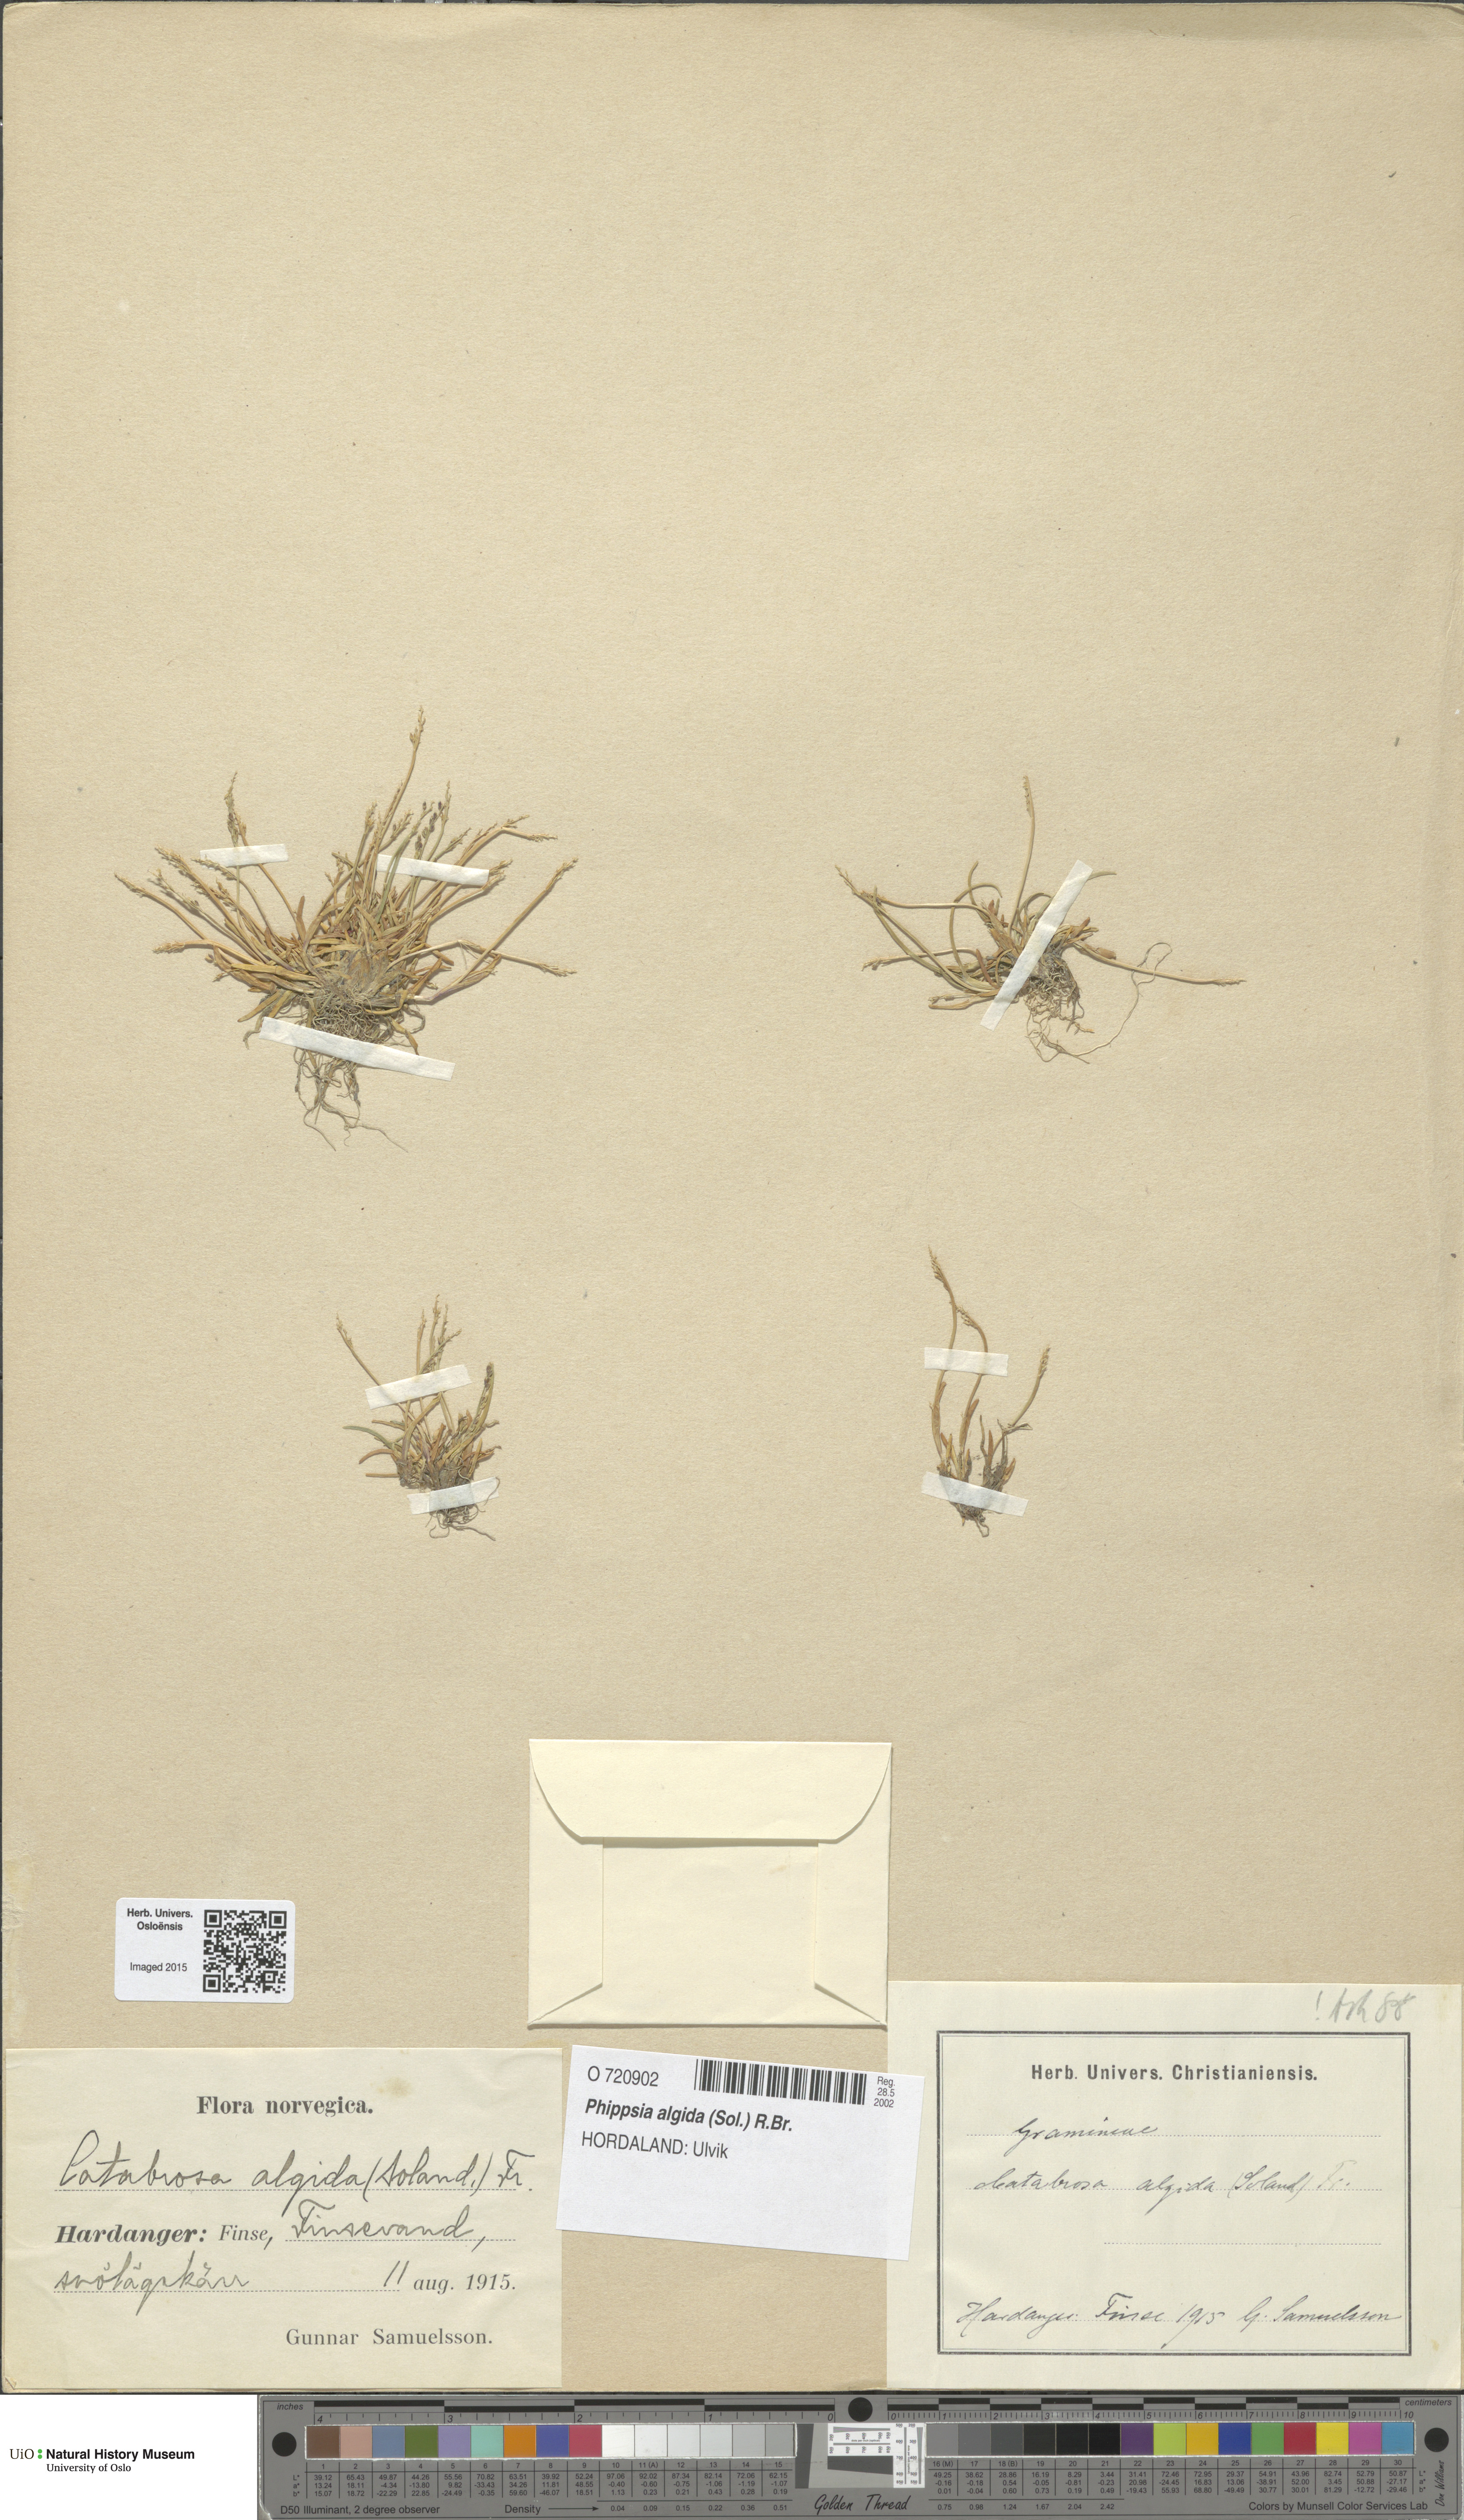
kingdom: Plantae
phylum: Tracheophyta
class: Liliopsida
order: Poales
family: Poaceae
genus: Phippsia
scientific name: Phippsia algida
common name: Ice grass
